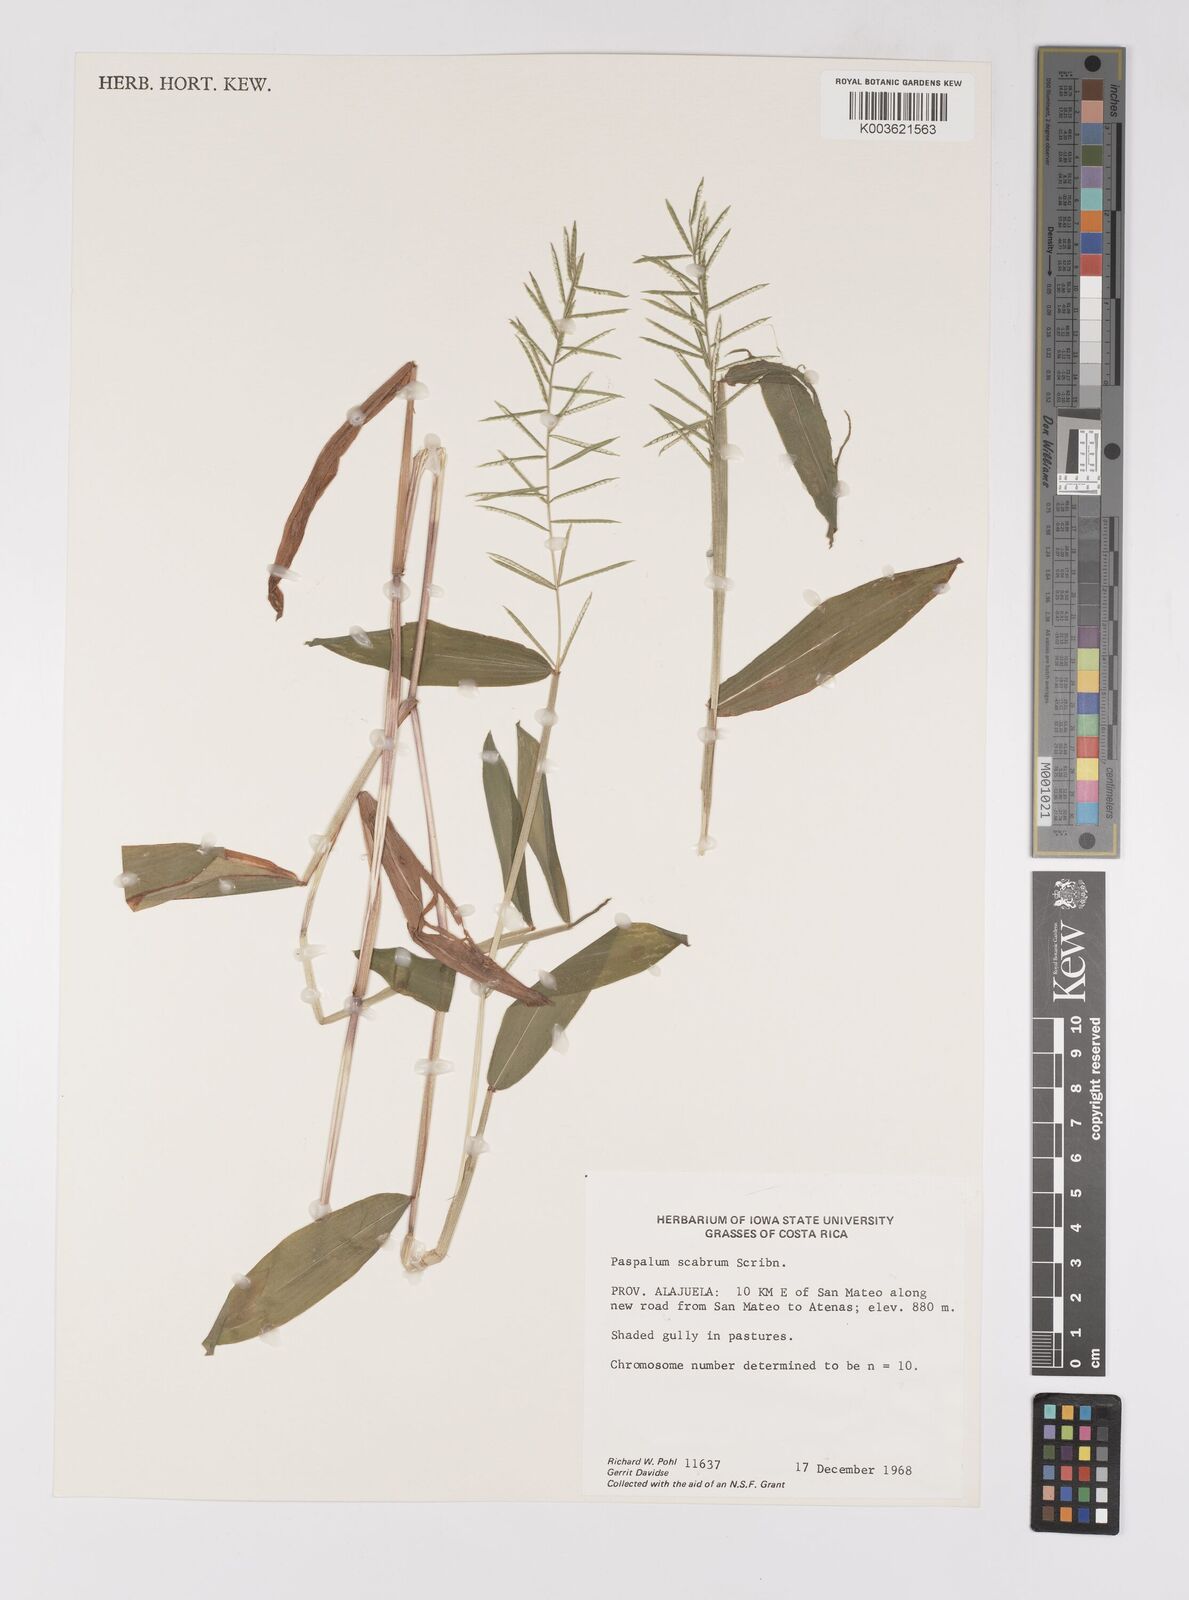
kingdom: Plantae
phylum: Tracheophyta
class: Liliopsida
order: Poales
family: Poaceae
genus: Paspalum
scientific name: Paspalum candidum
